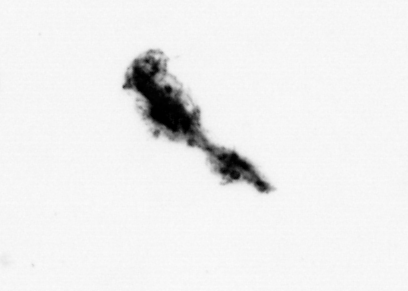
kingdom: Animalia
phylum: Arthropoda
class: Copepoda
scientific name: Copepoda
